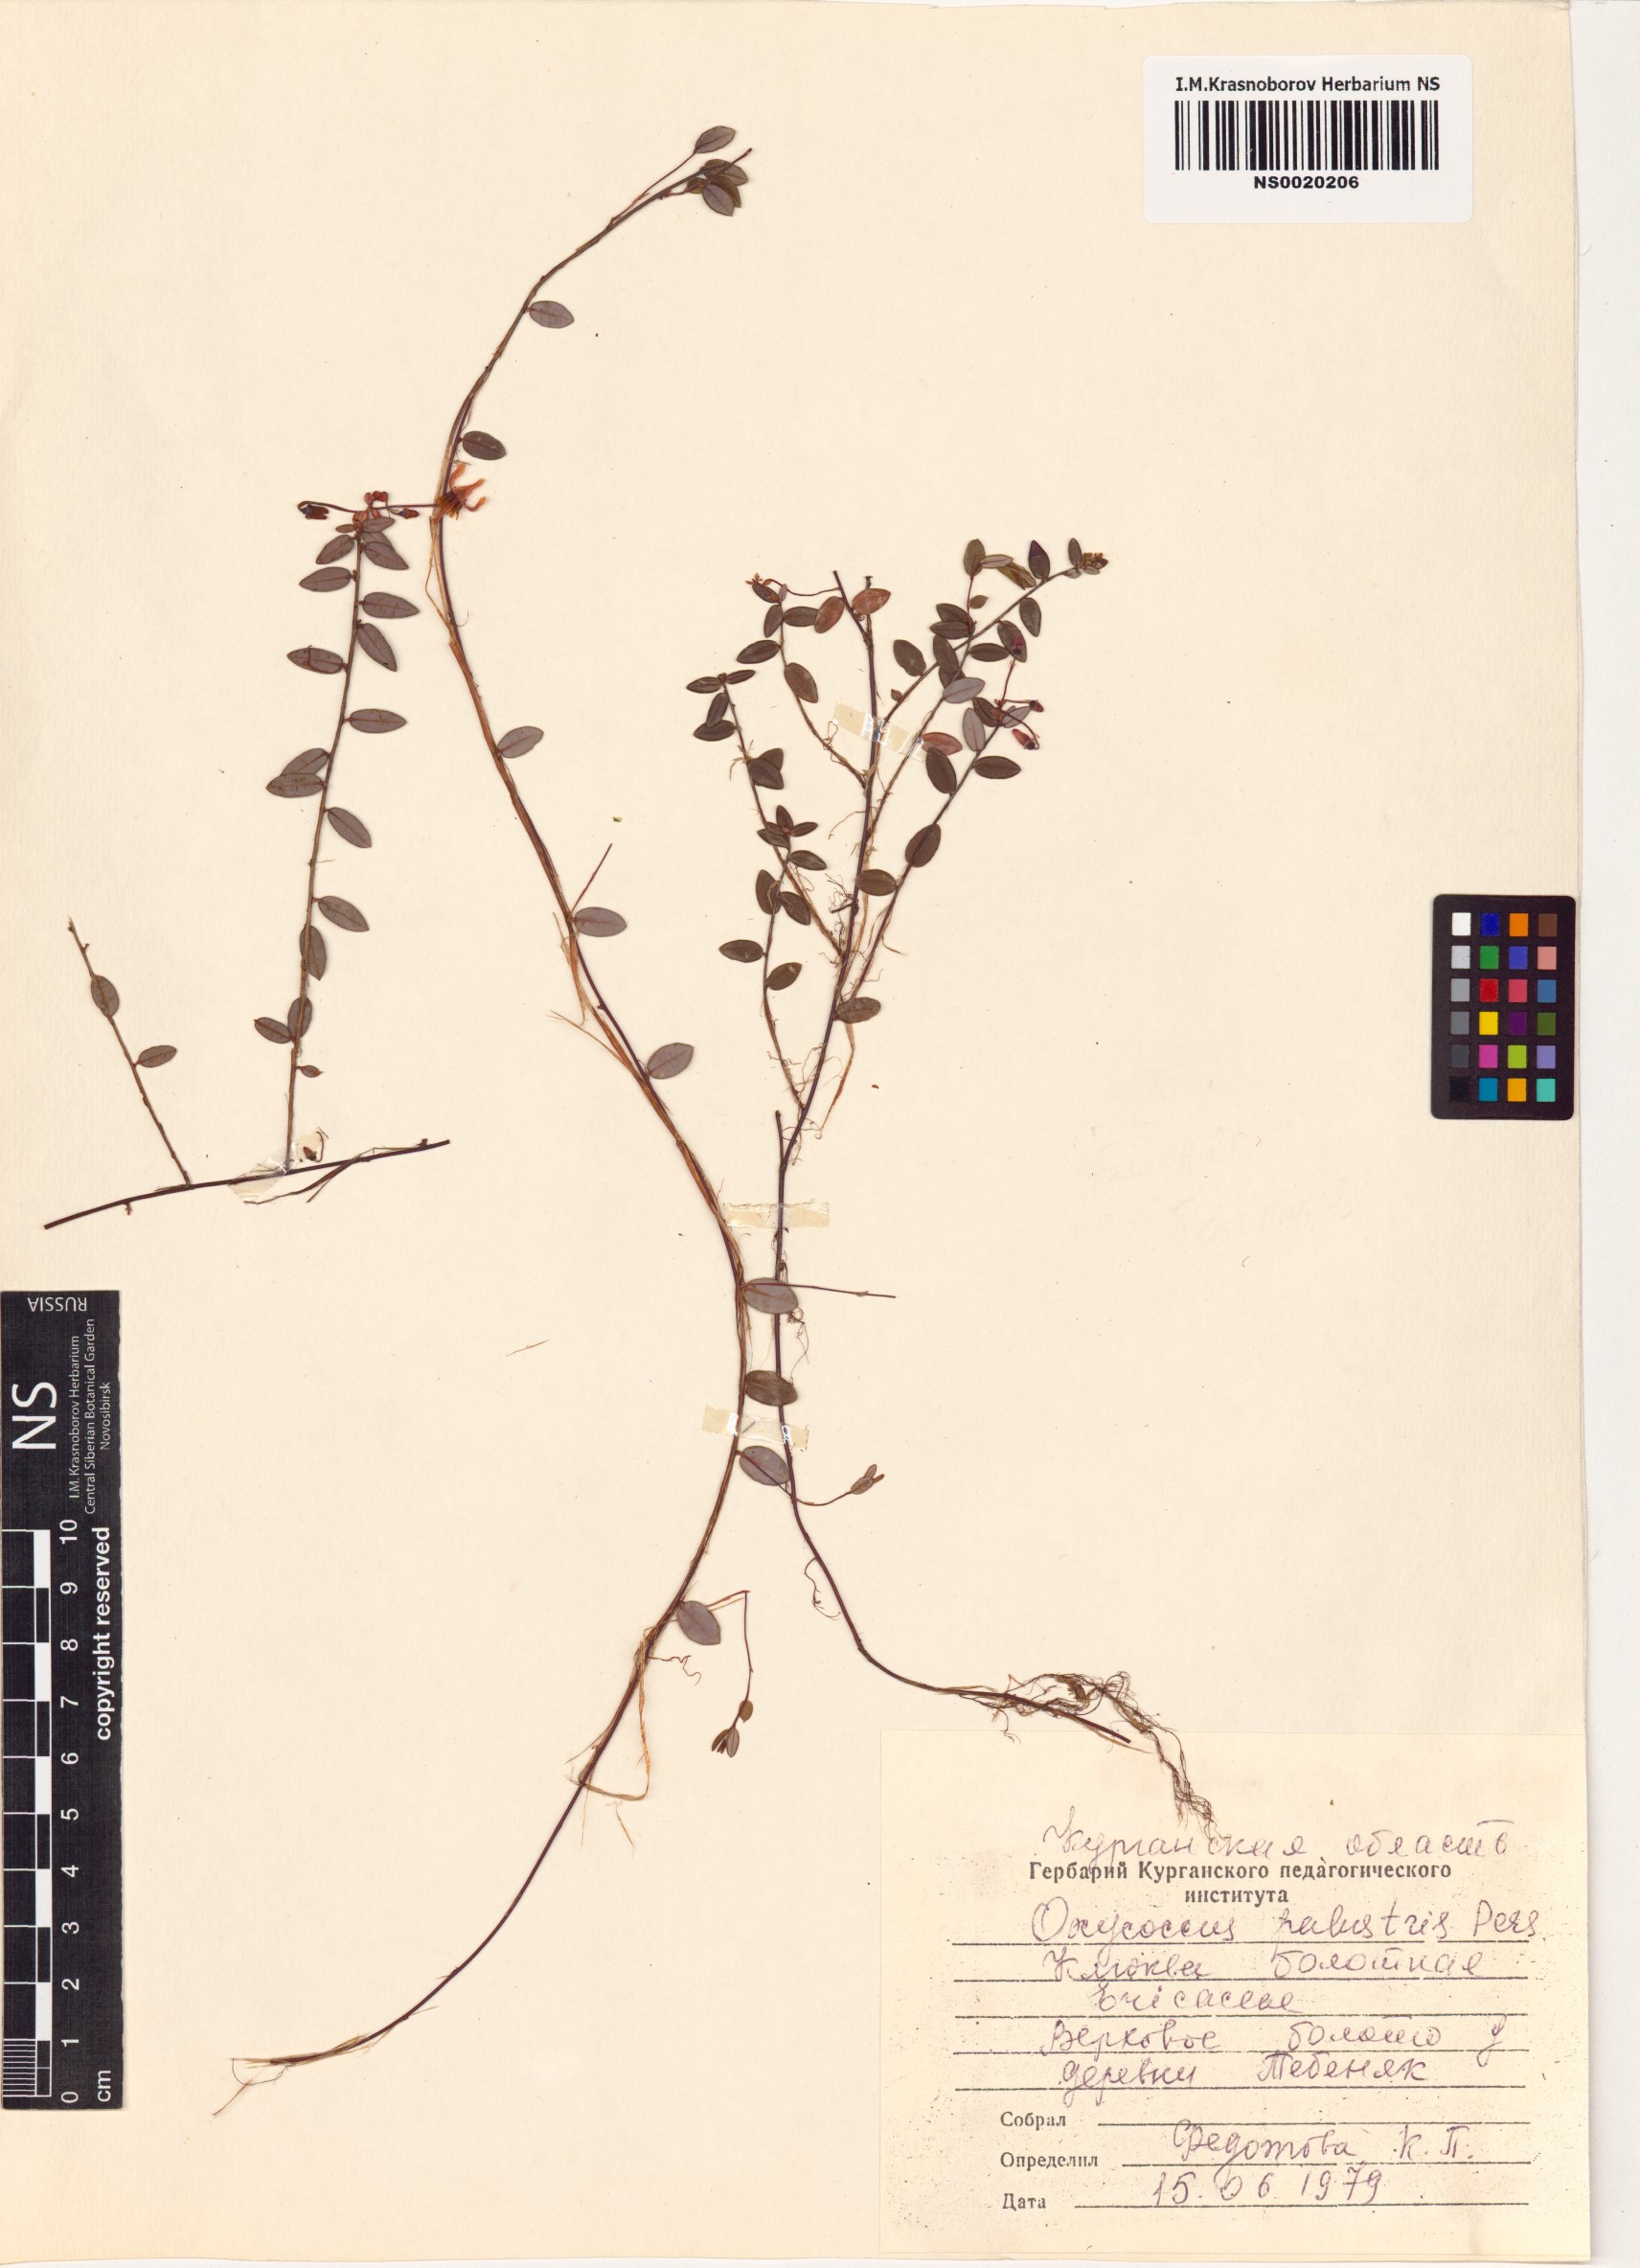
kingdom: Plantae
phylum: Tracheophyta
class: Magnoliopsida
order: Ericales
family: Ericaceae
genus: Vaccinium
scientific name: Vaccinium oxycoccos
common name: Cranberry
